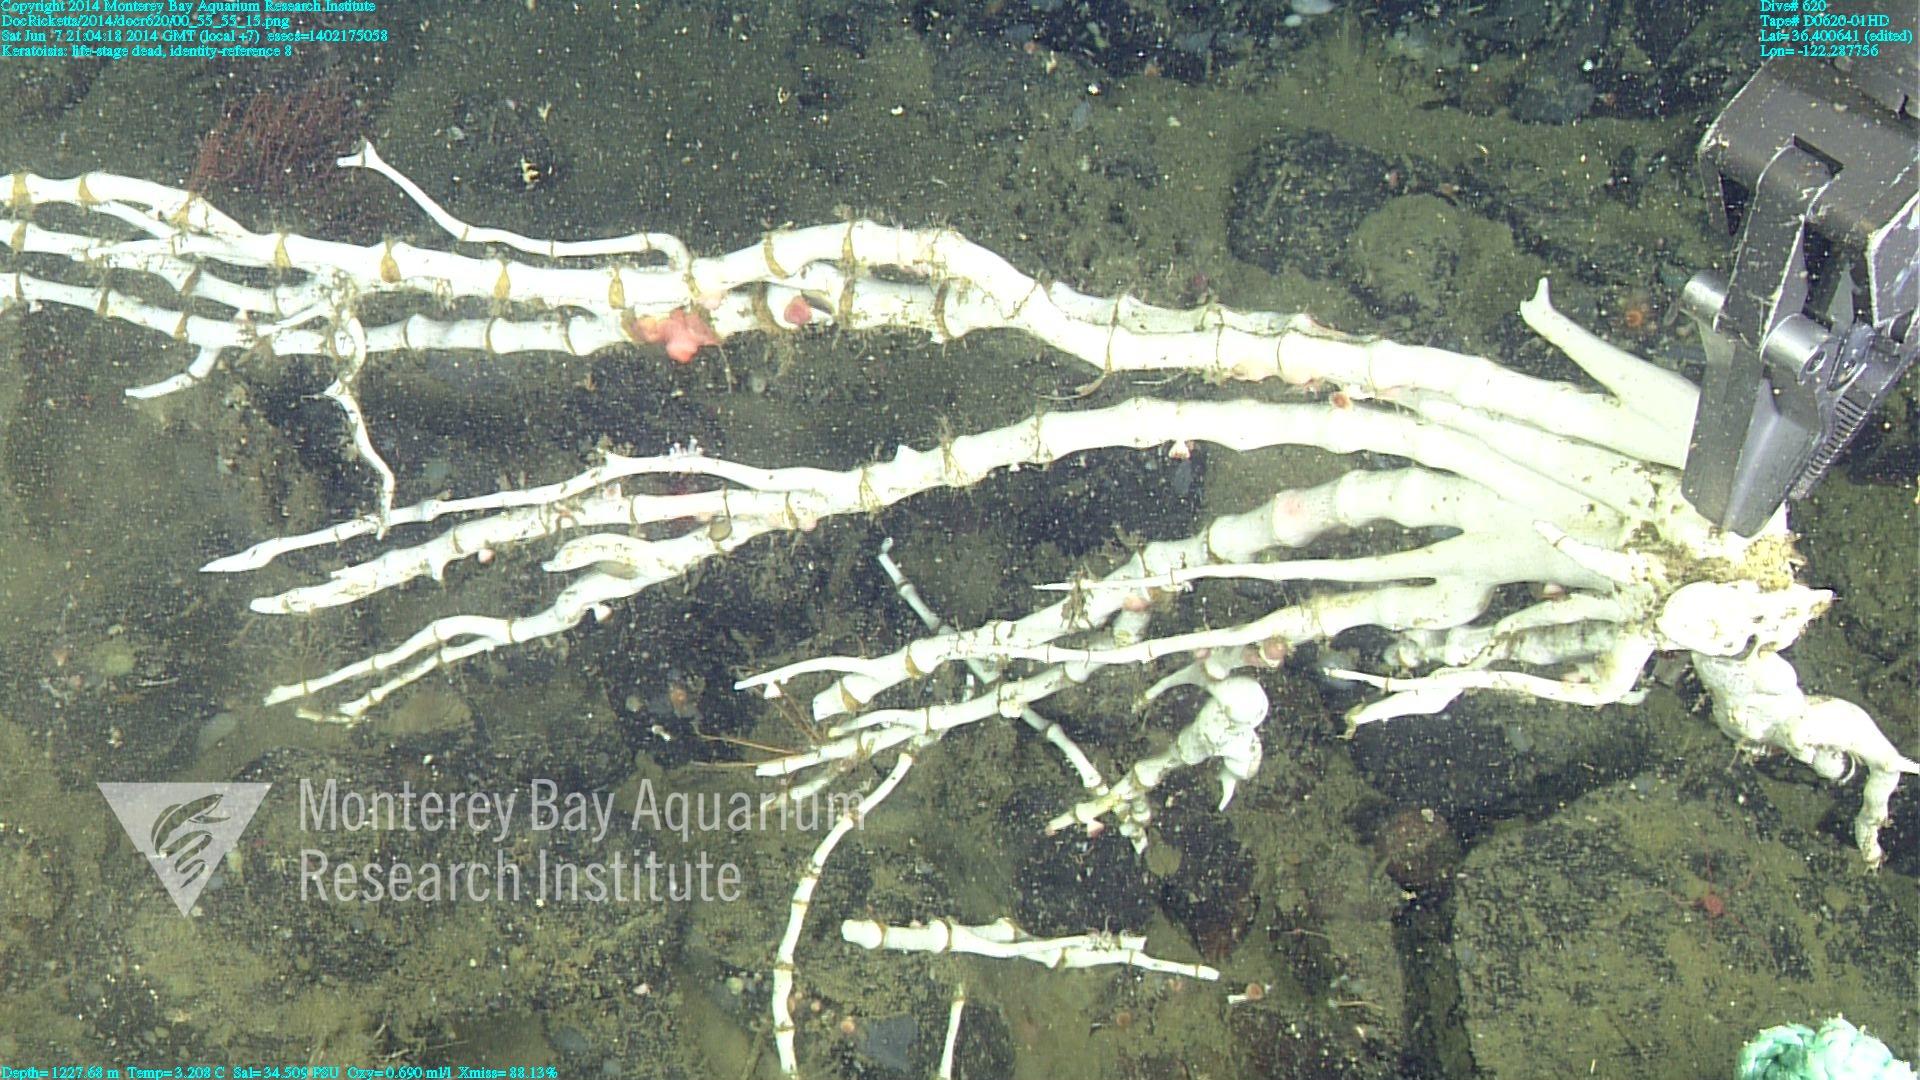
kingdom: Animalia
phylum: Cnidaria
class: Anthozoa
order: Scleralcyonacea
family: Keratoisididae
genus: Keratoisis
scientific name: Keratoisis
